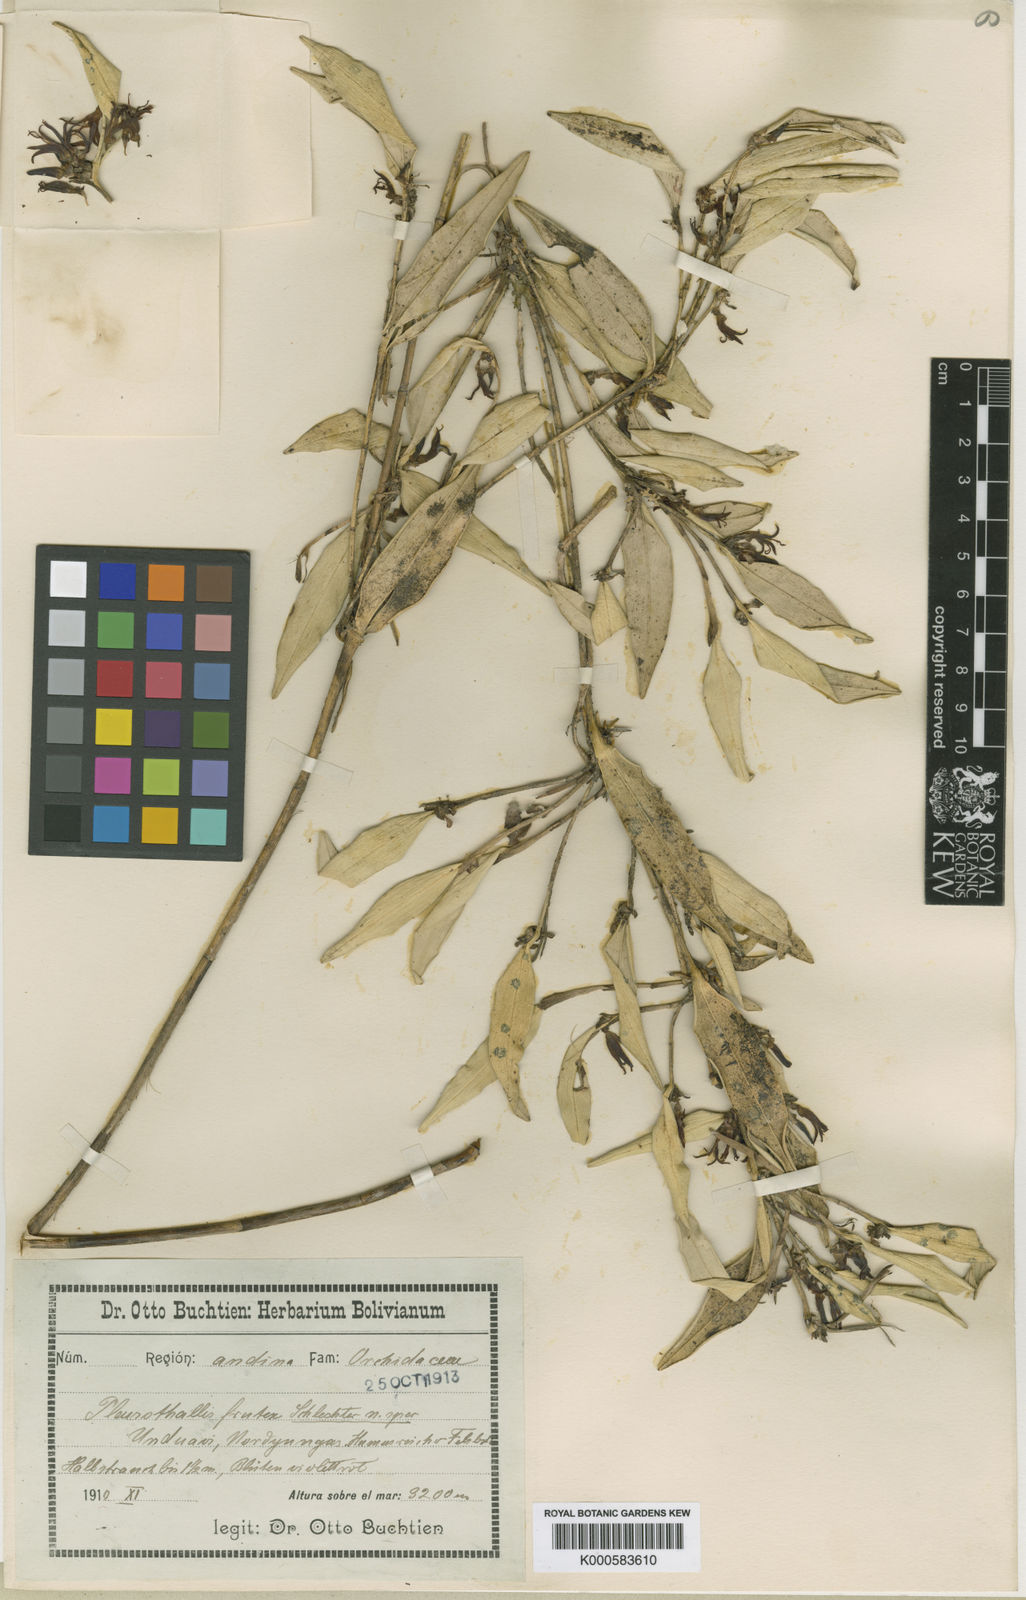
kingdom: Plantae
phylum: Tracheophyta
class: Liliopsida
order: Asparagales
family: Orchidaceae
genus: Myoxanthus
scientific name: Myoxanthus frutex
